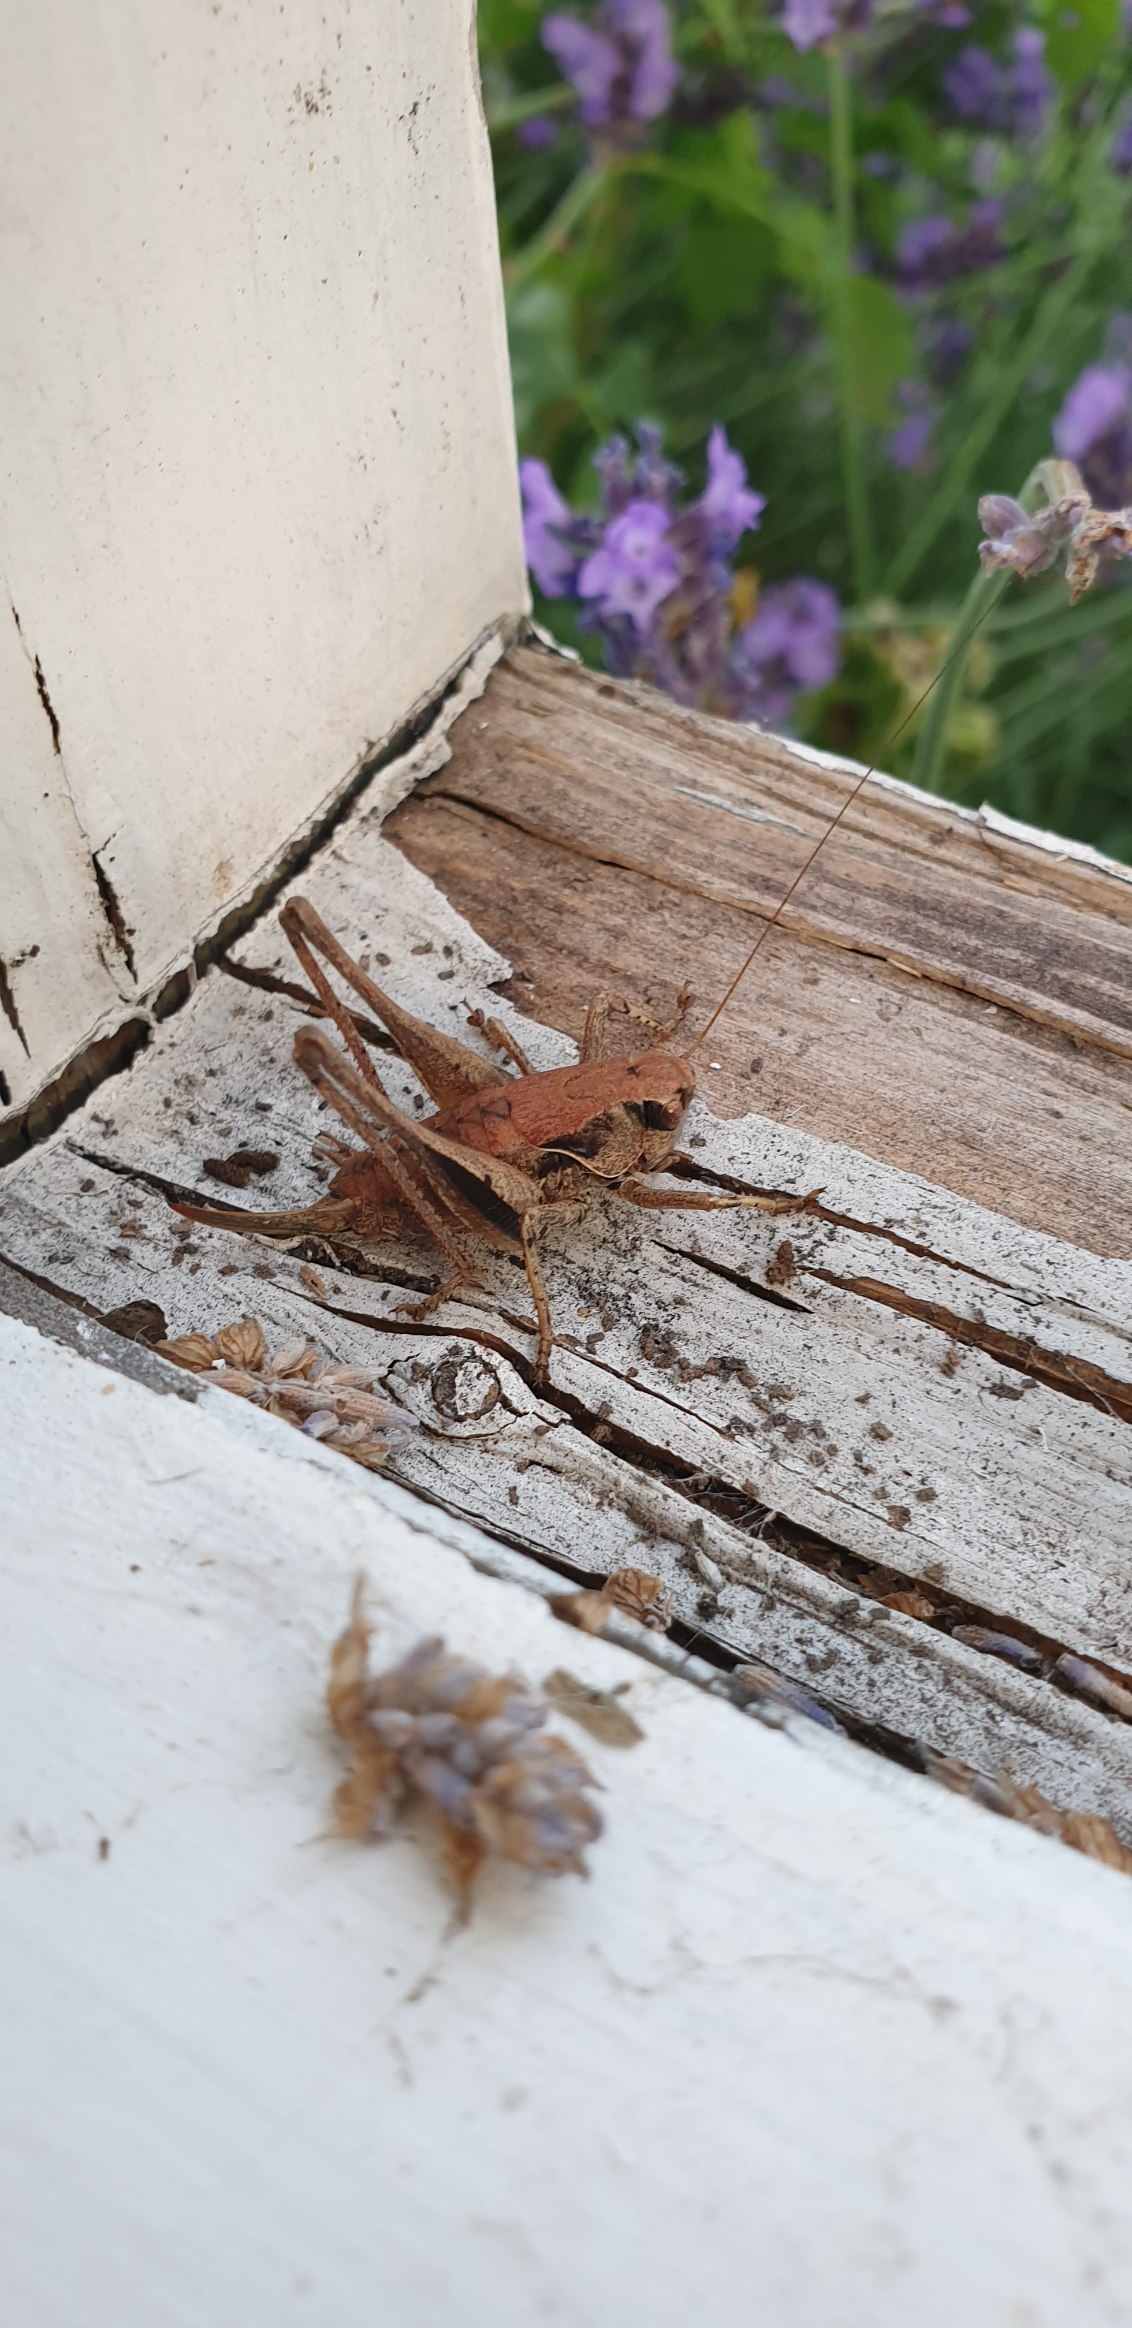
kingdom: Animalia
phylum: Arthropoda
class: Insecta
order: Orthoptera
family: Tettigoniidae
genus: Pholidoptera
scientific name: Pholidoptera griseoaptera
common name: Buskgræshoppe
